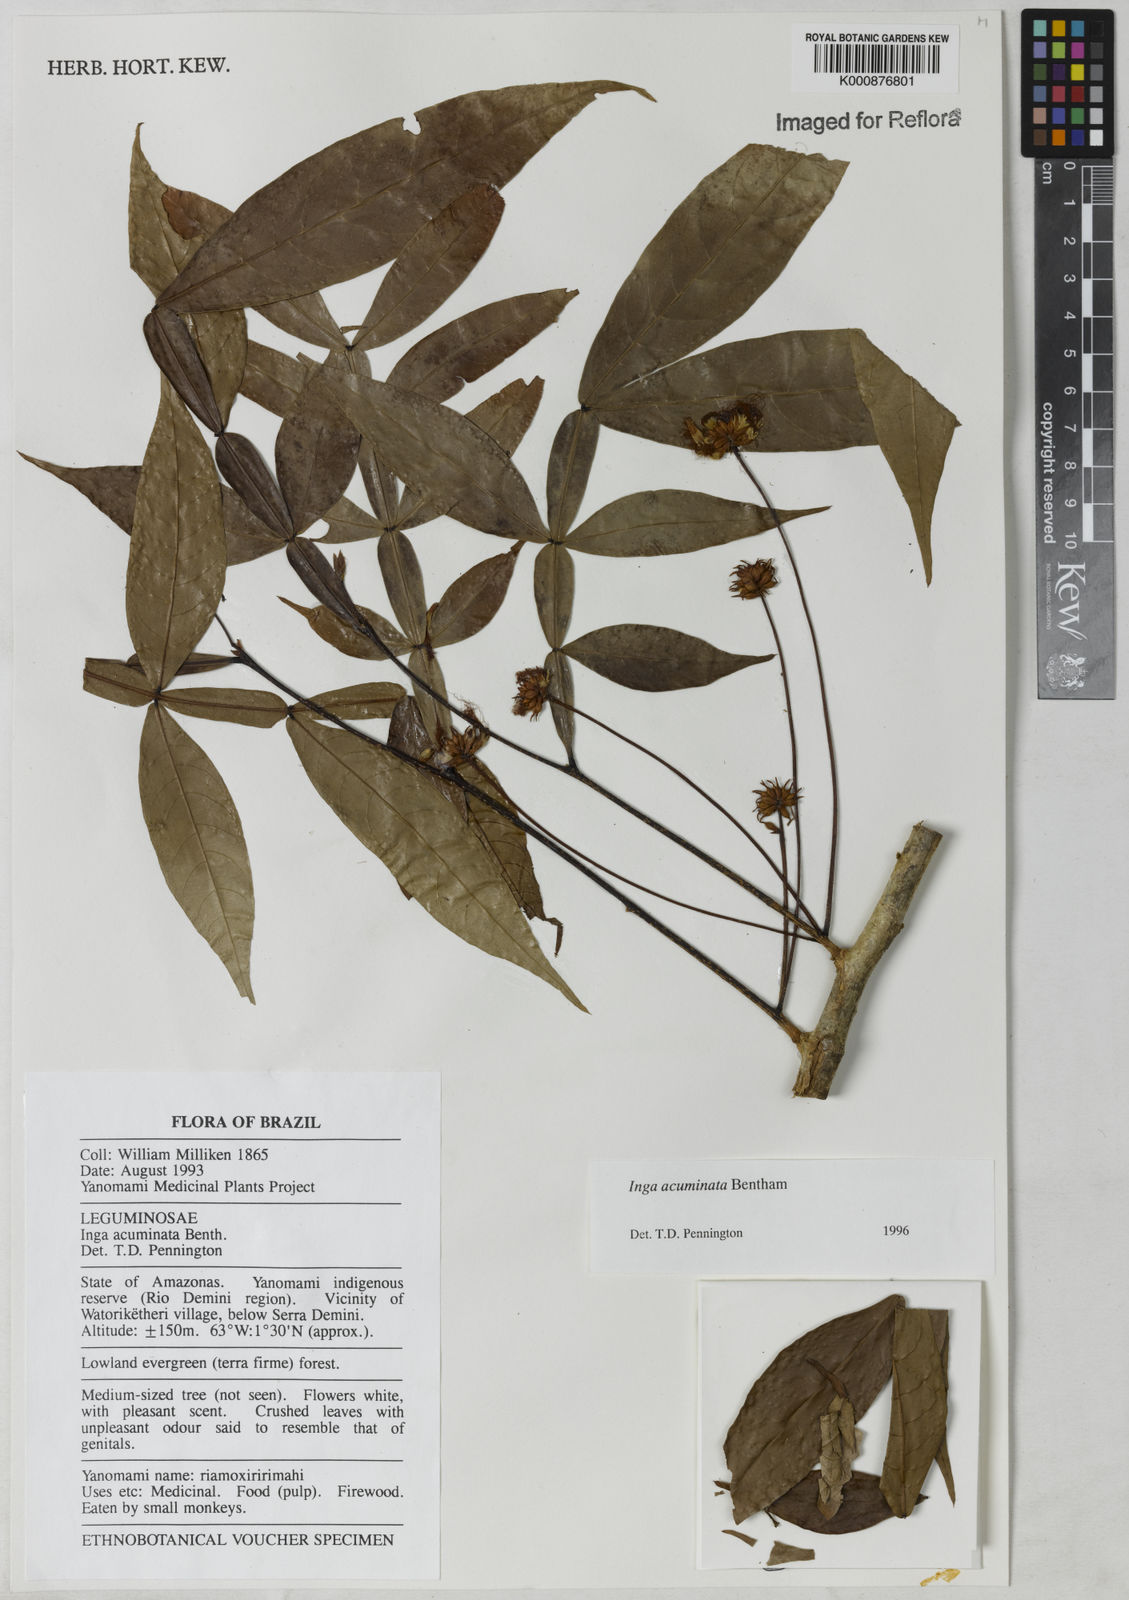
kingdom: Plantae
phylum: Tracheophyta
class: Magnoliopsida
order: Fabales
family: Fabaceae
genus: Inga
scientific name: Inga acuminata
